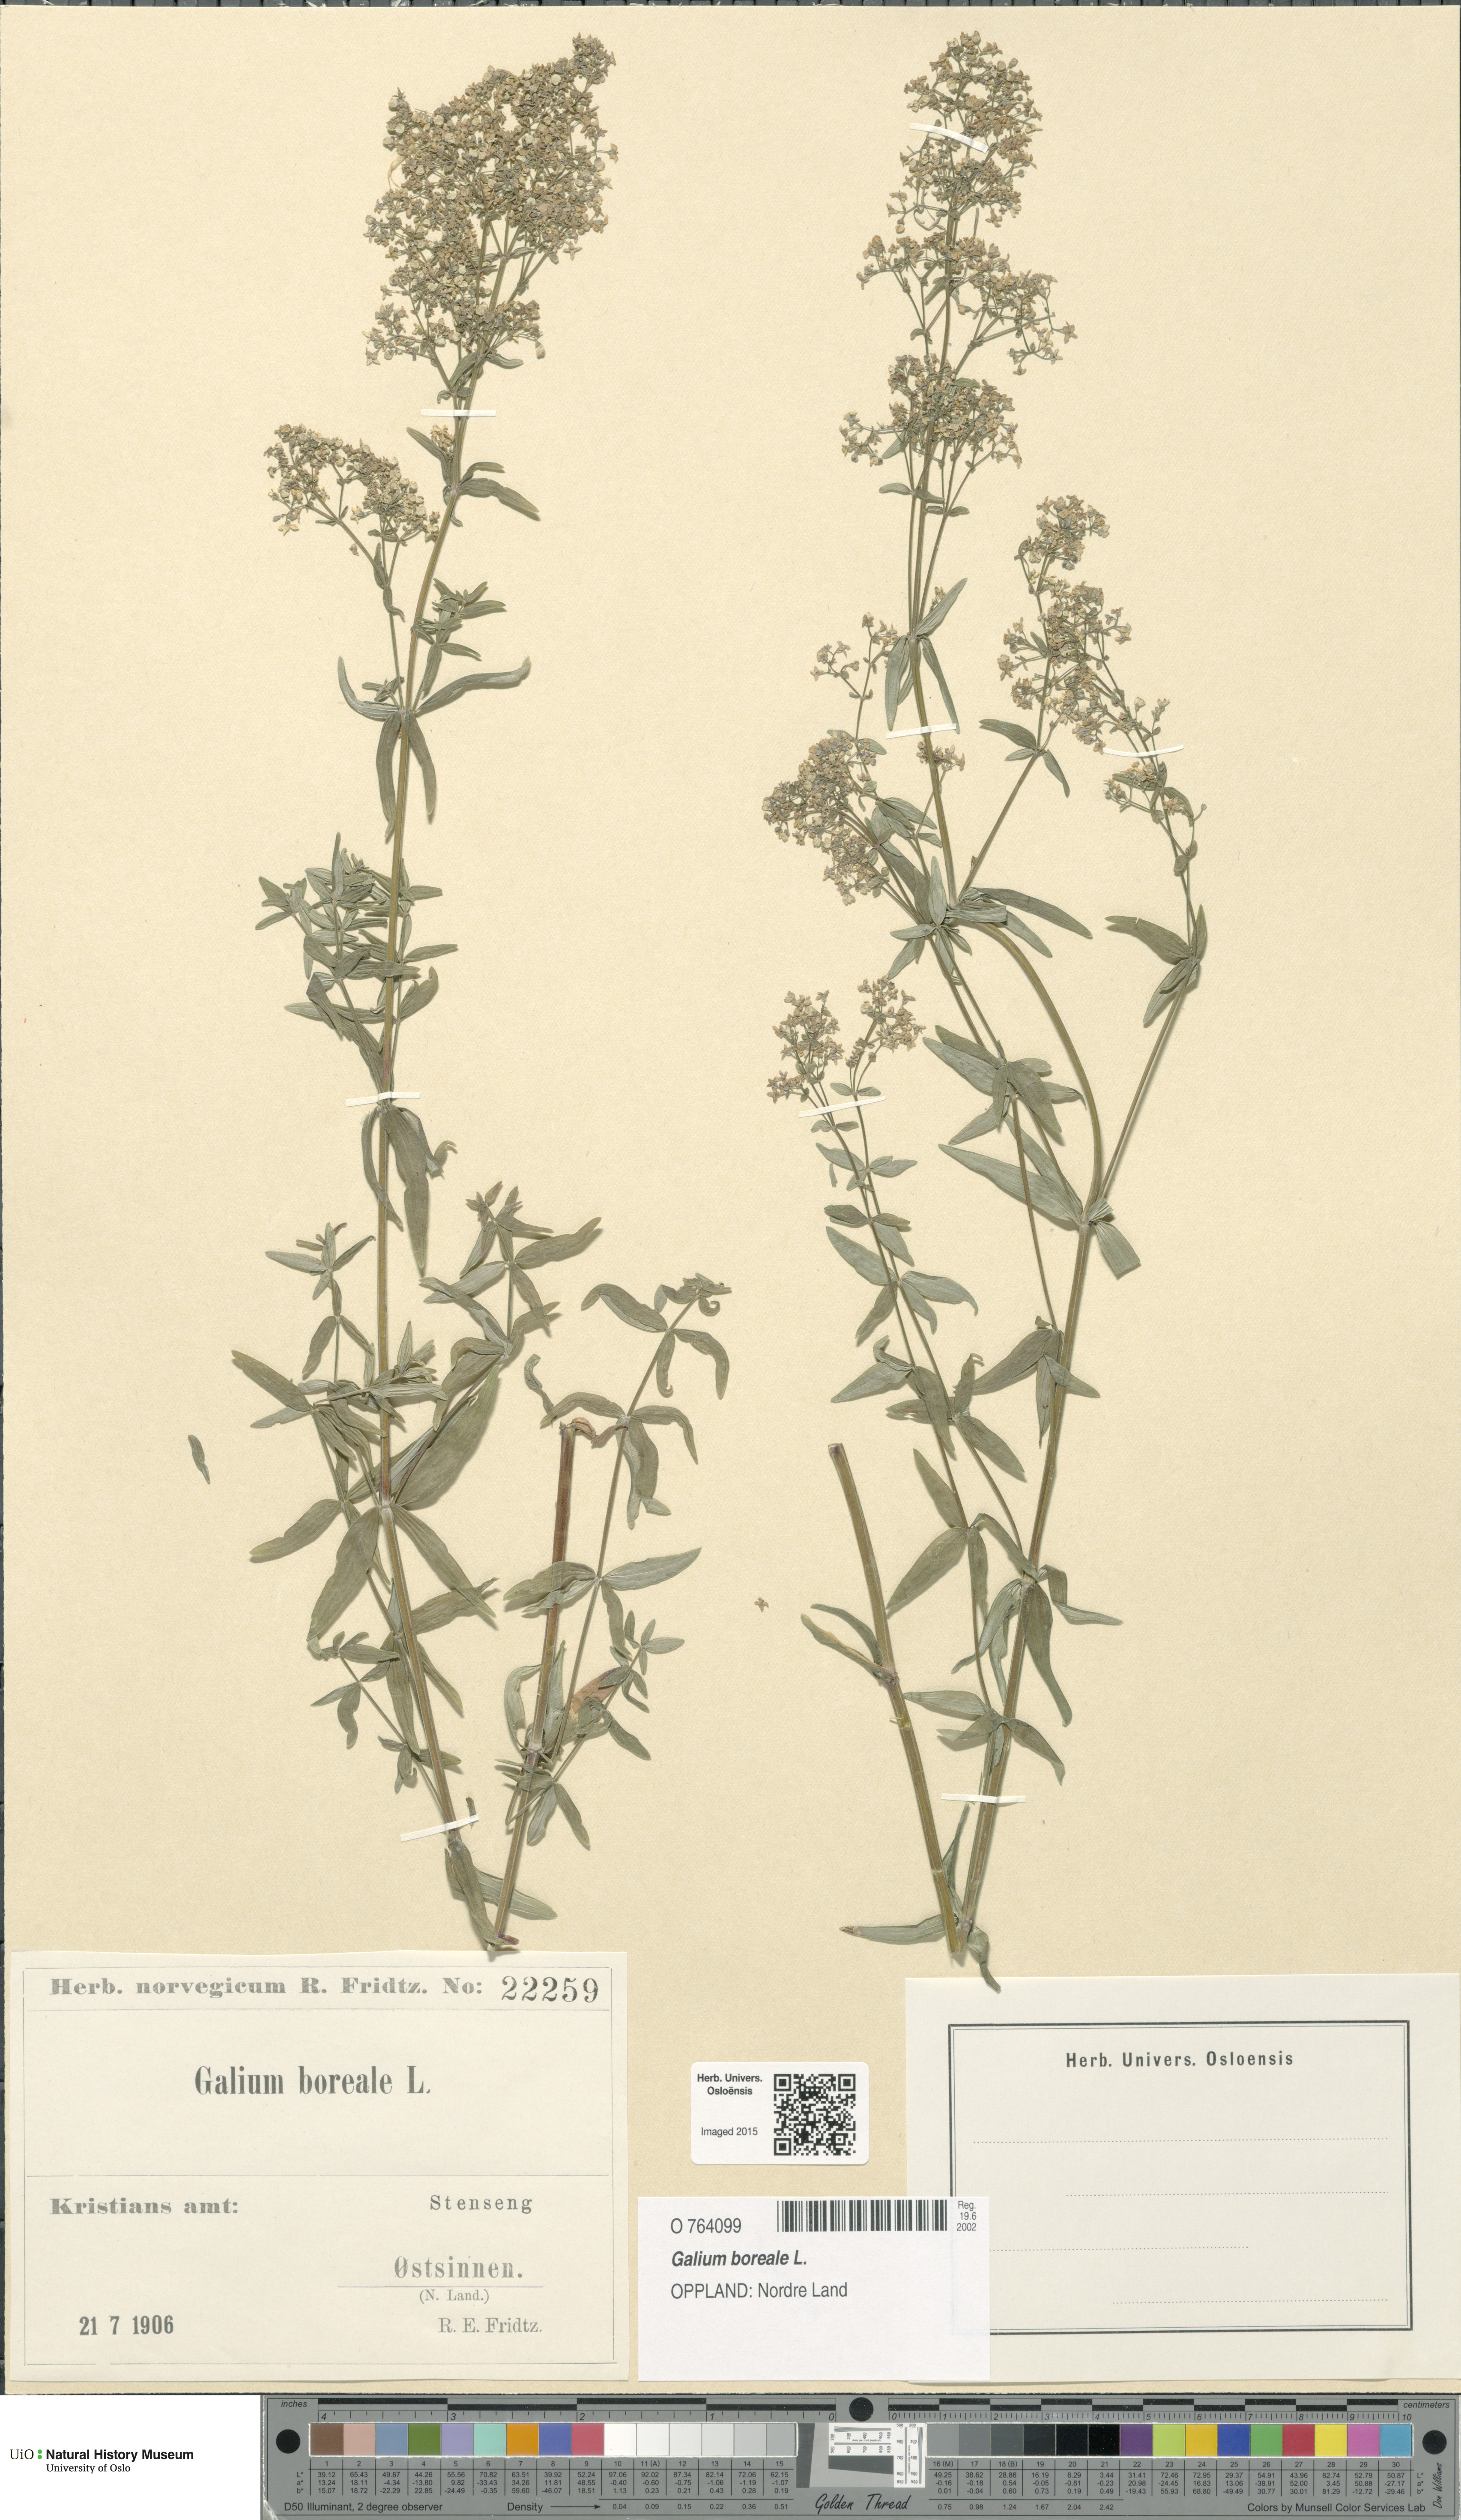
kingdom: Plantae
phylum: Tracheophyta
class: Magnoliopsida
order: Gentianales
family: Rubiaceae
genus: Galium
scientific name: Galium boreale
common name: Northern bedstraw
